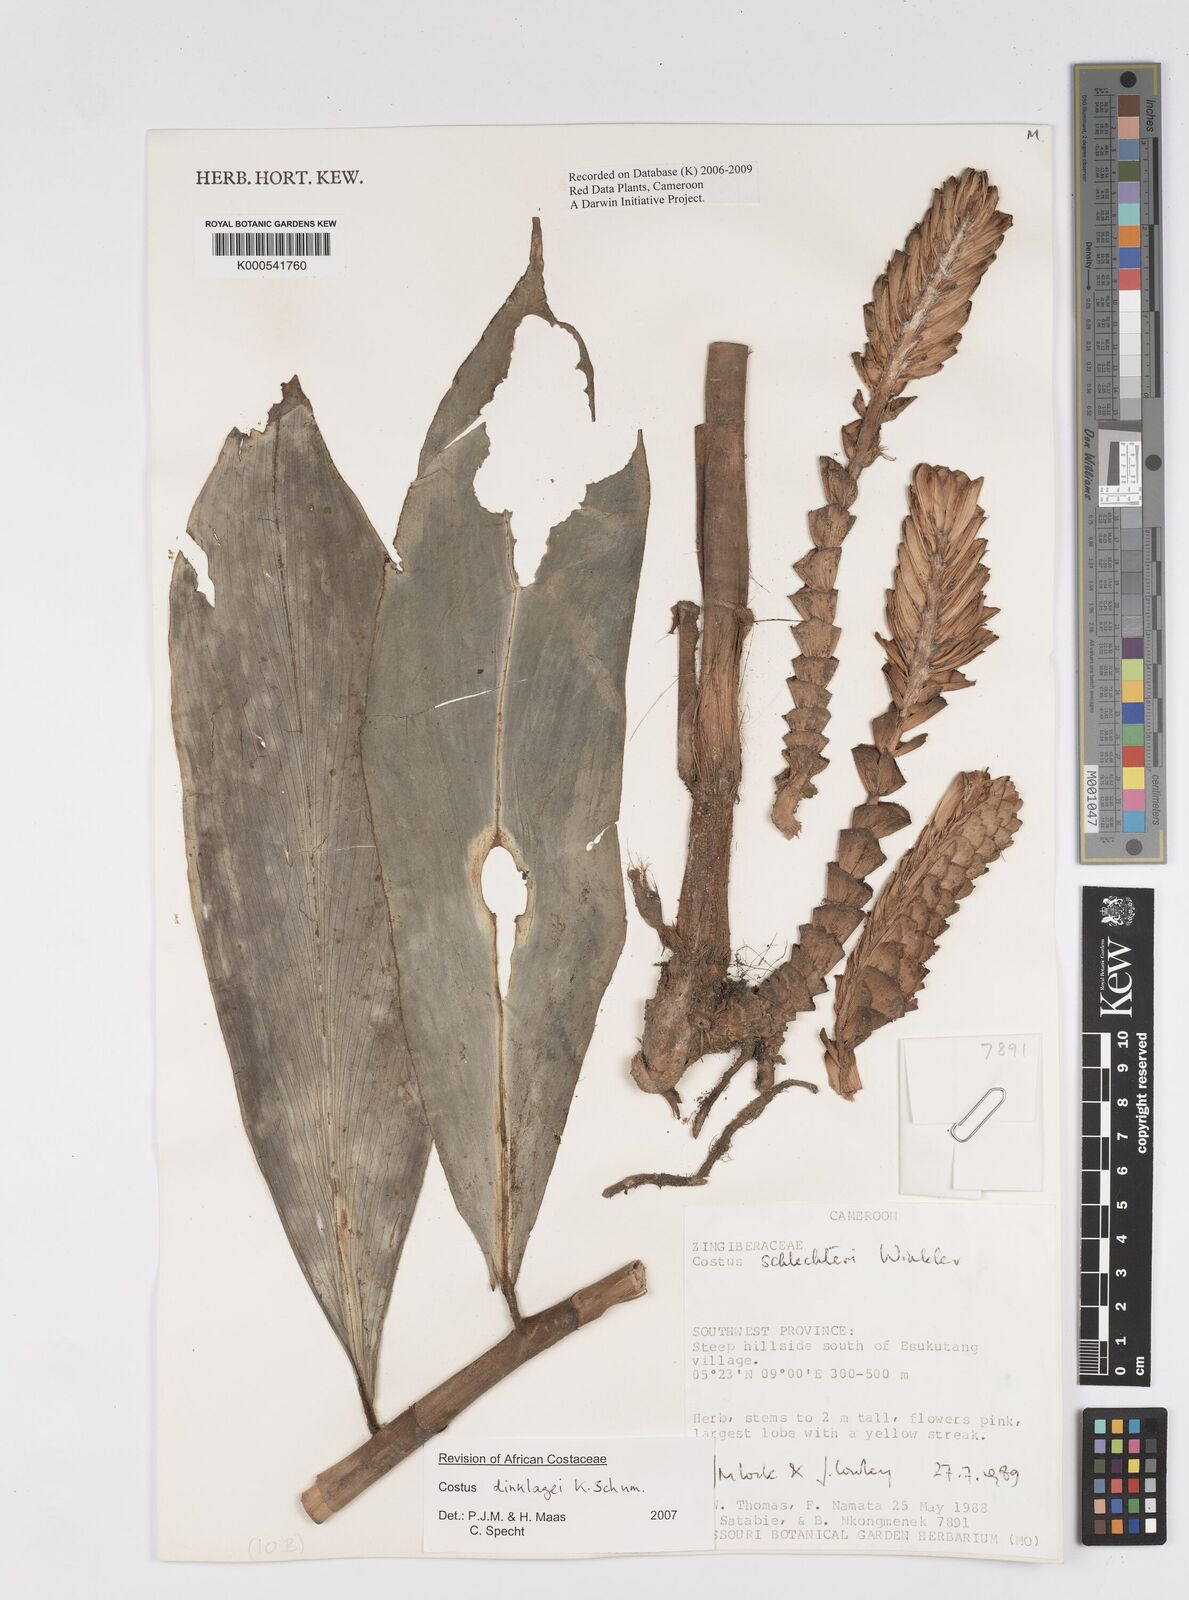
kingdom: Plantae
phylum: Tracheophyta
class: Liliopsida
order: Zingiberales
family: Costaceae
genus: Costus
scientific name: Costus dinklagei
